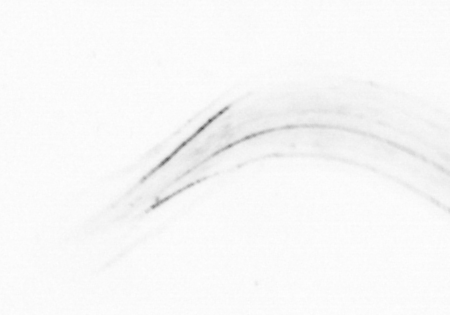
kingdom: Chromista
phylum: Ochrophyta
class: Bacillariophyceae
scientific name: Bacillariophyceae
